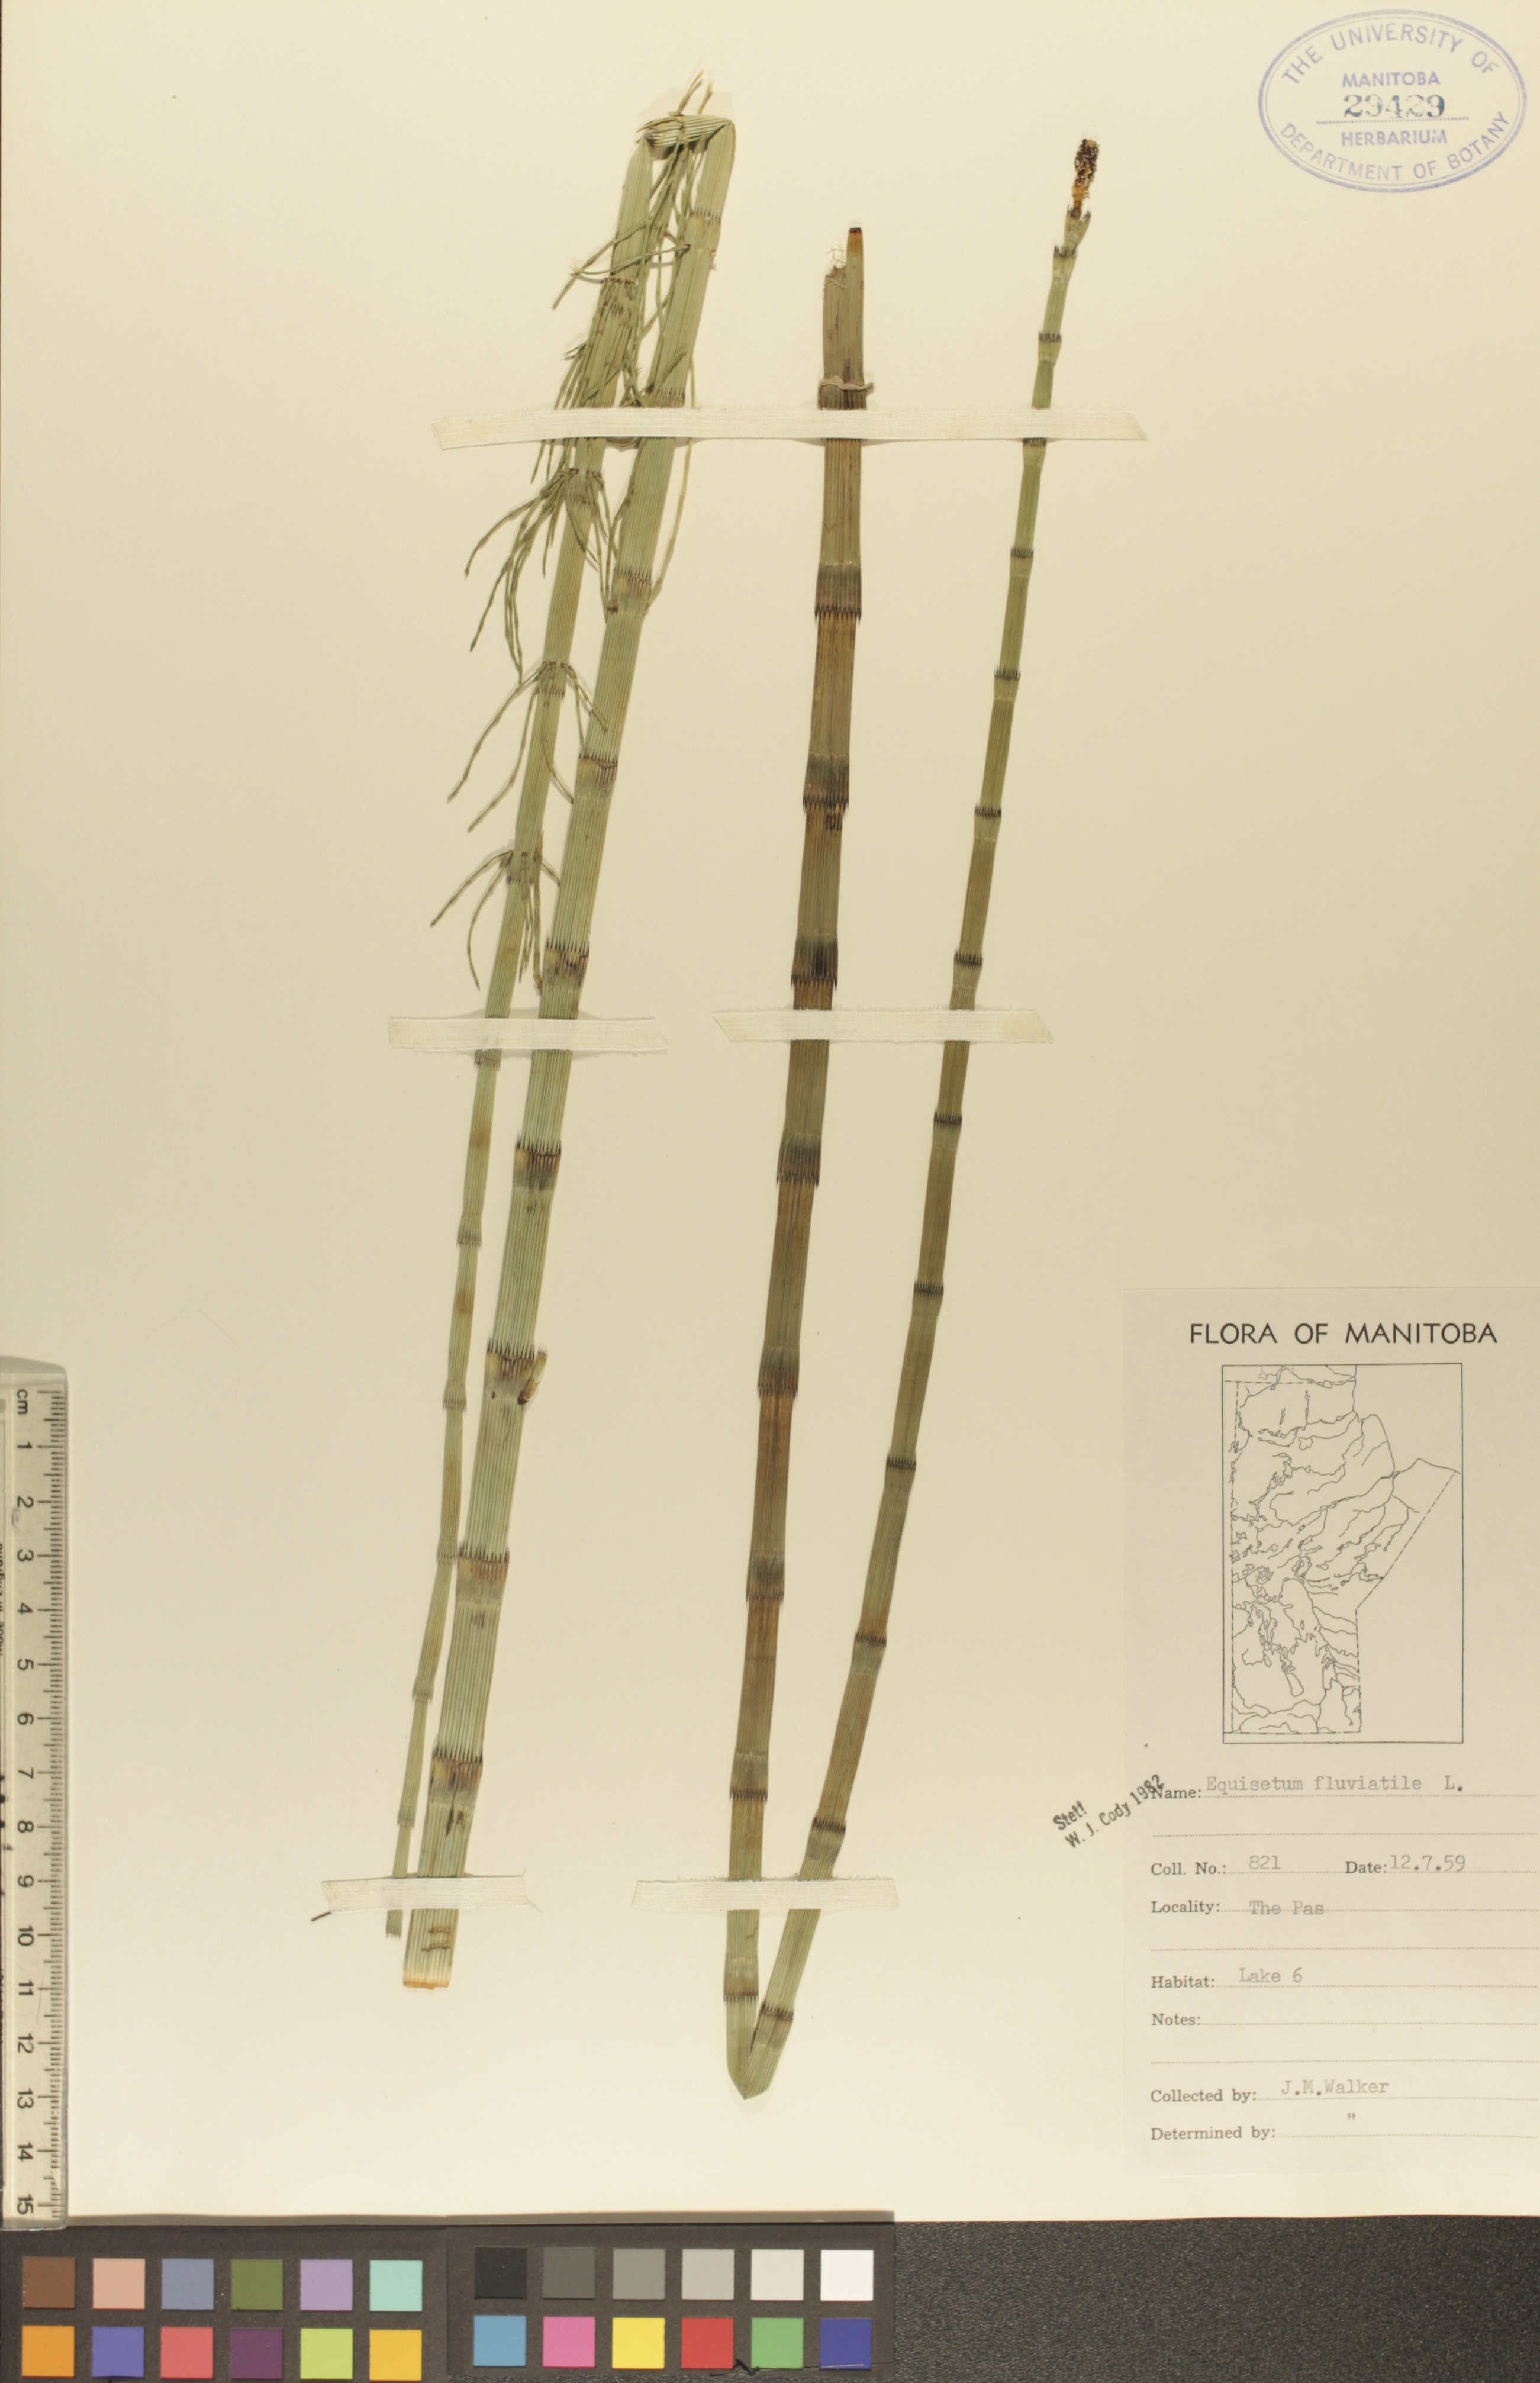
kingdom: Plantae
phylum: Tracheophyta
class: Polypodiopsida
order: Equisetales
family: Equisetaceae
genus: Equisetum
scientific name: Equisetum fluviatile
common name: Water horsetail
